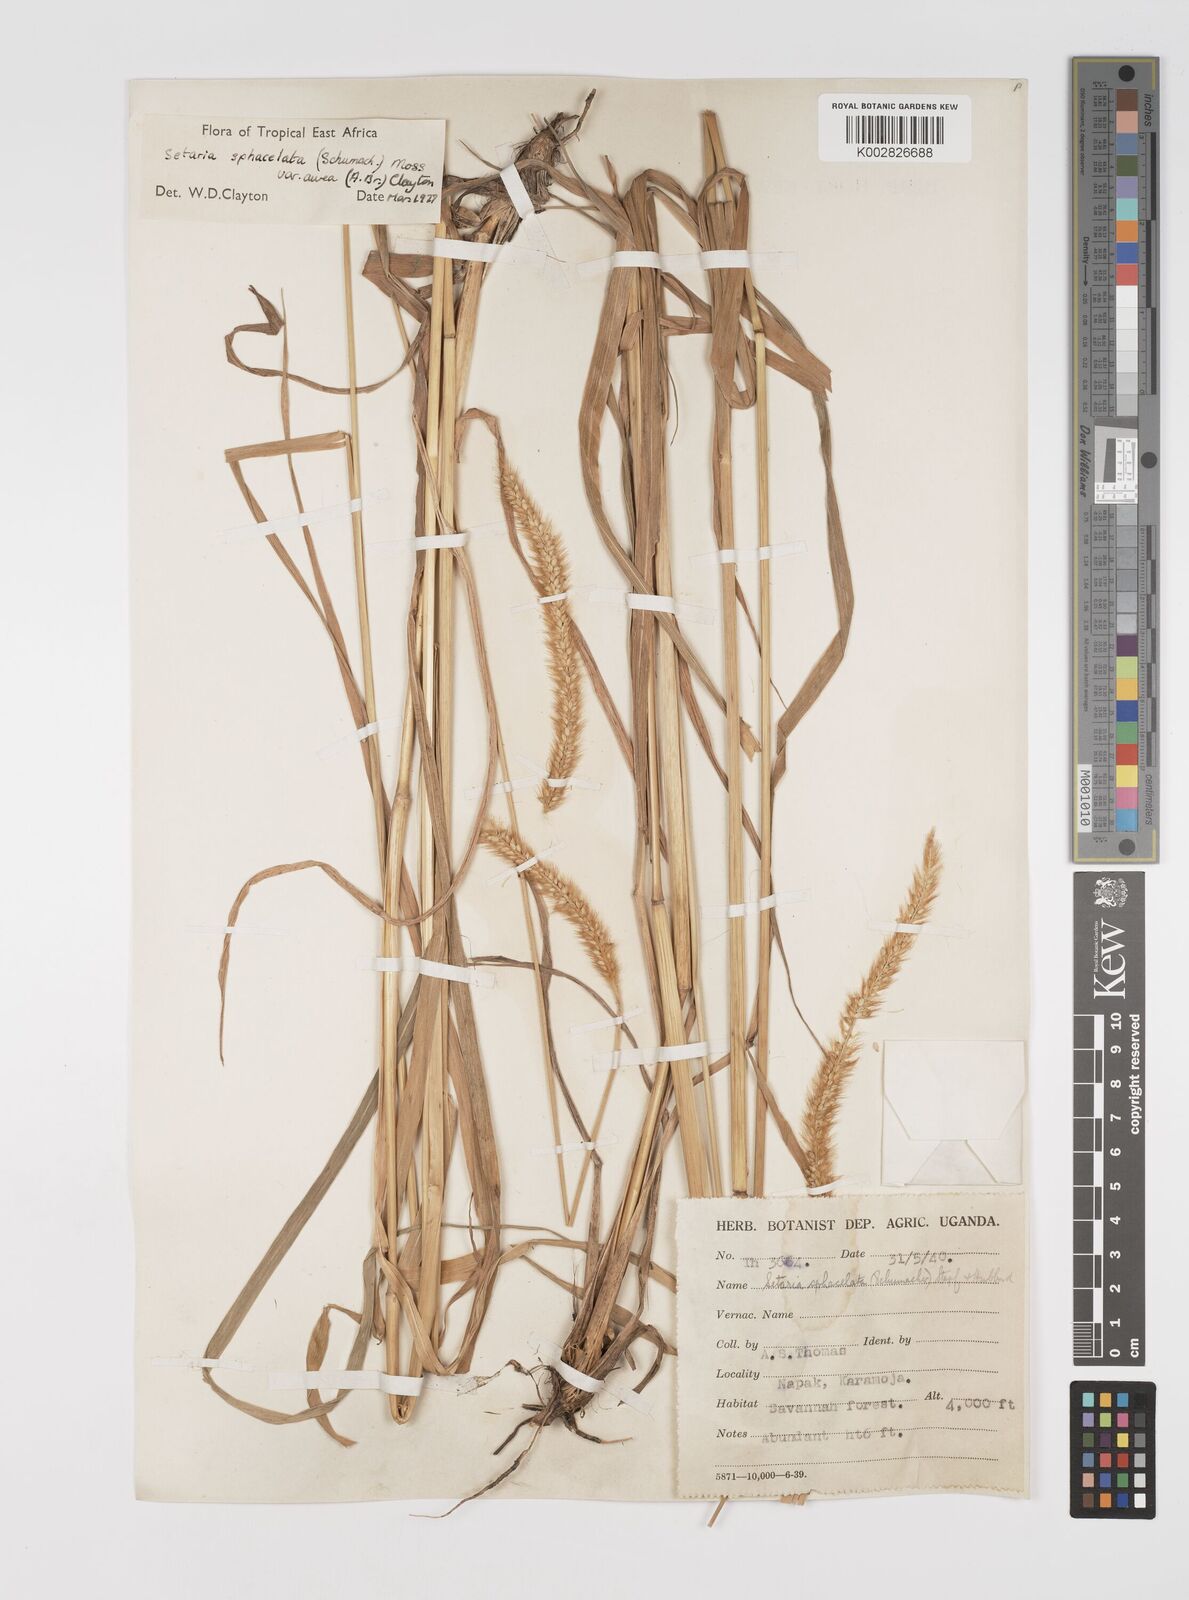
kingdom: Plantae
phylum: Tracheophyta
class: Liliopsida
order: Poales
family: Poaceae
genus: Setaria
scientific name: Setaria sphacelata
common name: African bristlegrass
